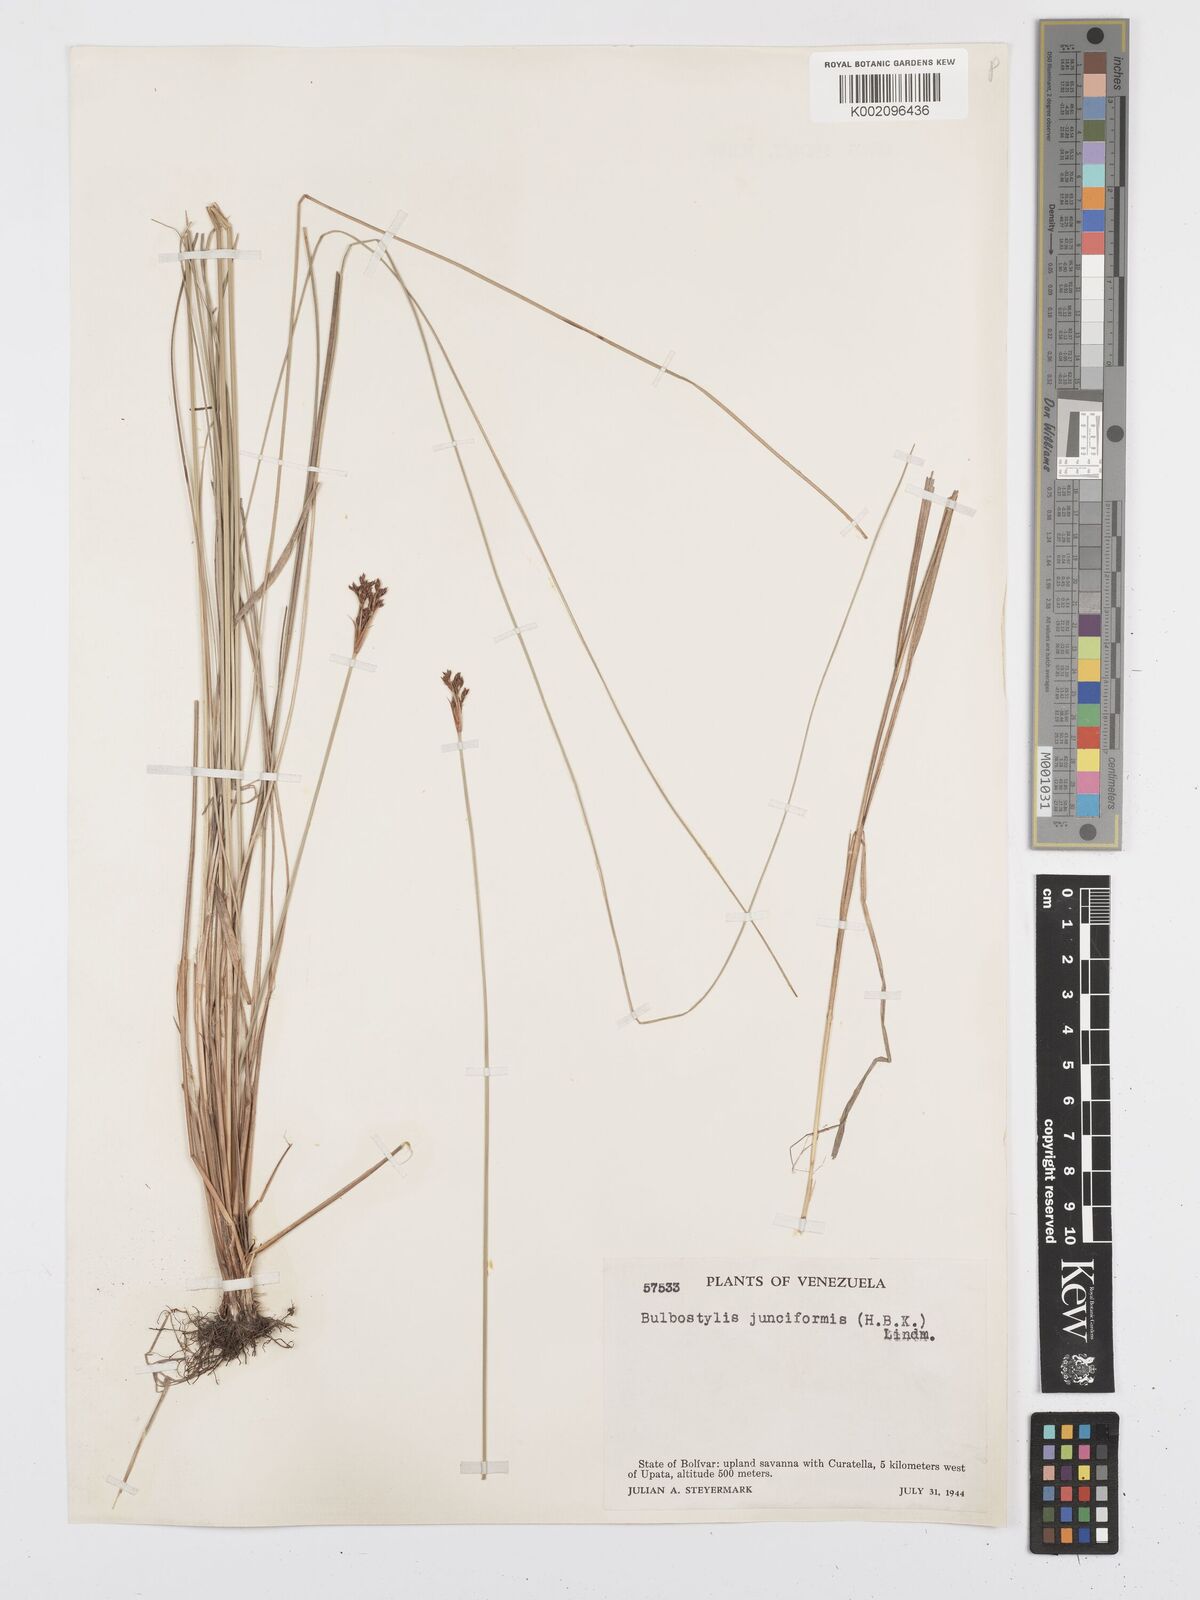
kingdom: Plantae
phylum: Tracheophyta
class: Liliopsida
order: Poales
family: Cyperaceae
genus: Bulbostylis
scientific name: Bulbostylis junciformis
